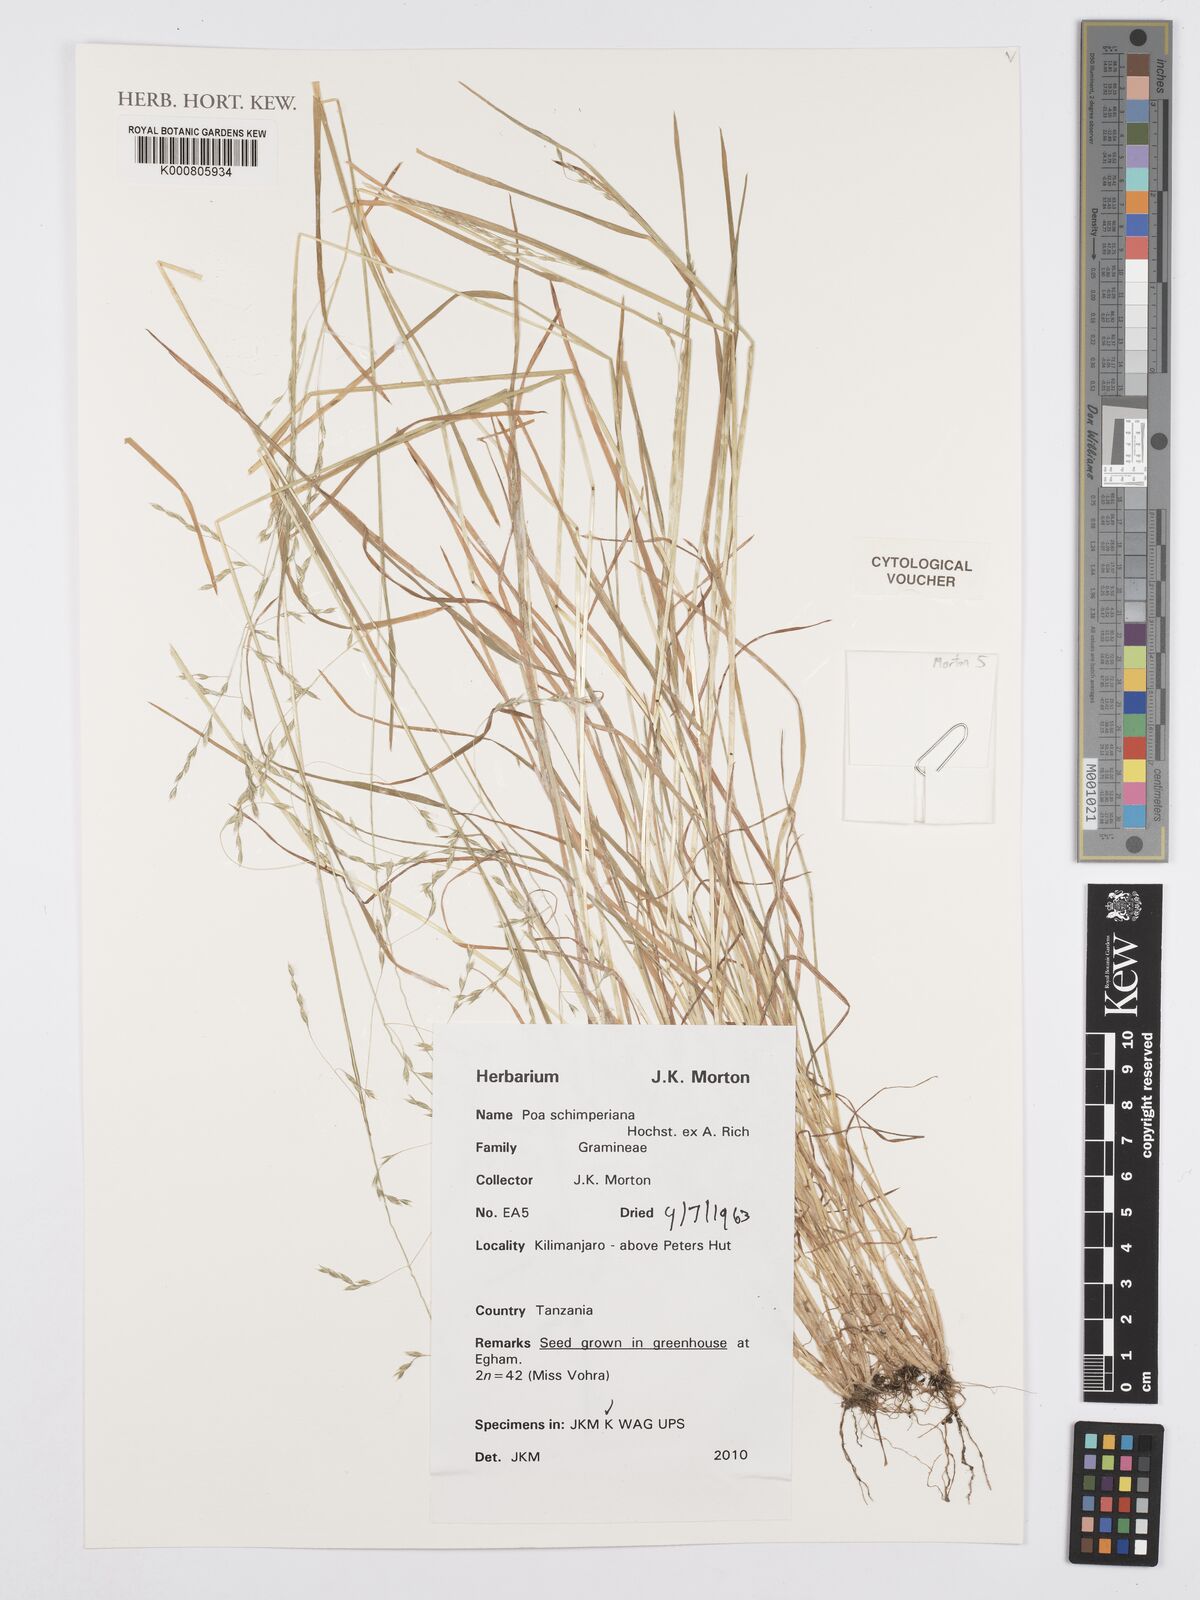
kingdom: Plantae
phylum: Tracheophyta
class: Liliopsida
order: Poales
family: Poaceae
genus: Poa
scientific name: Poa schimperiana
